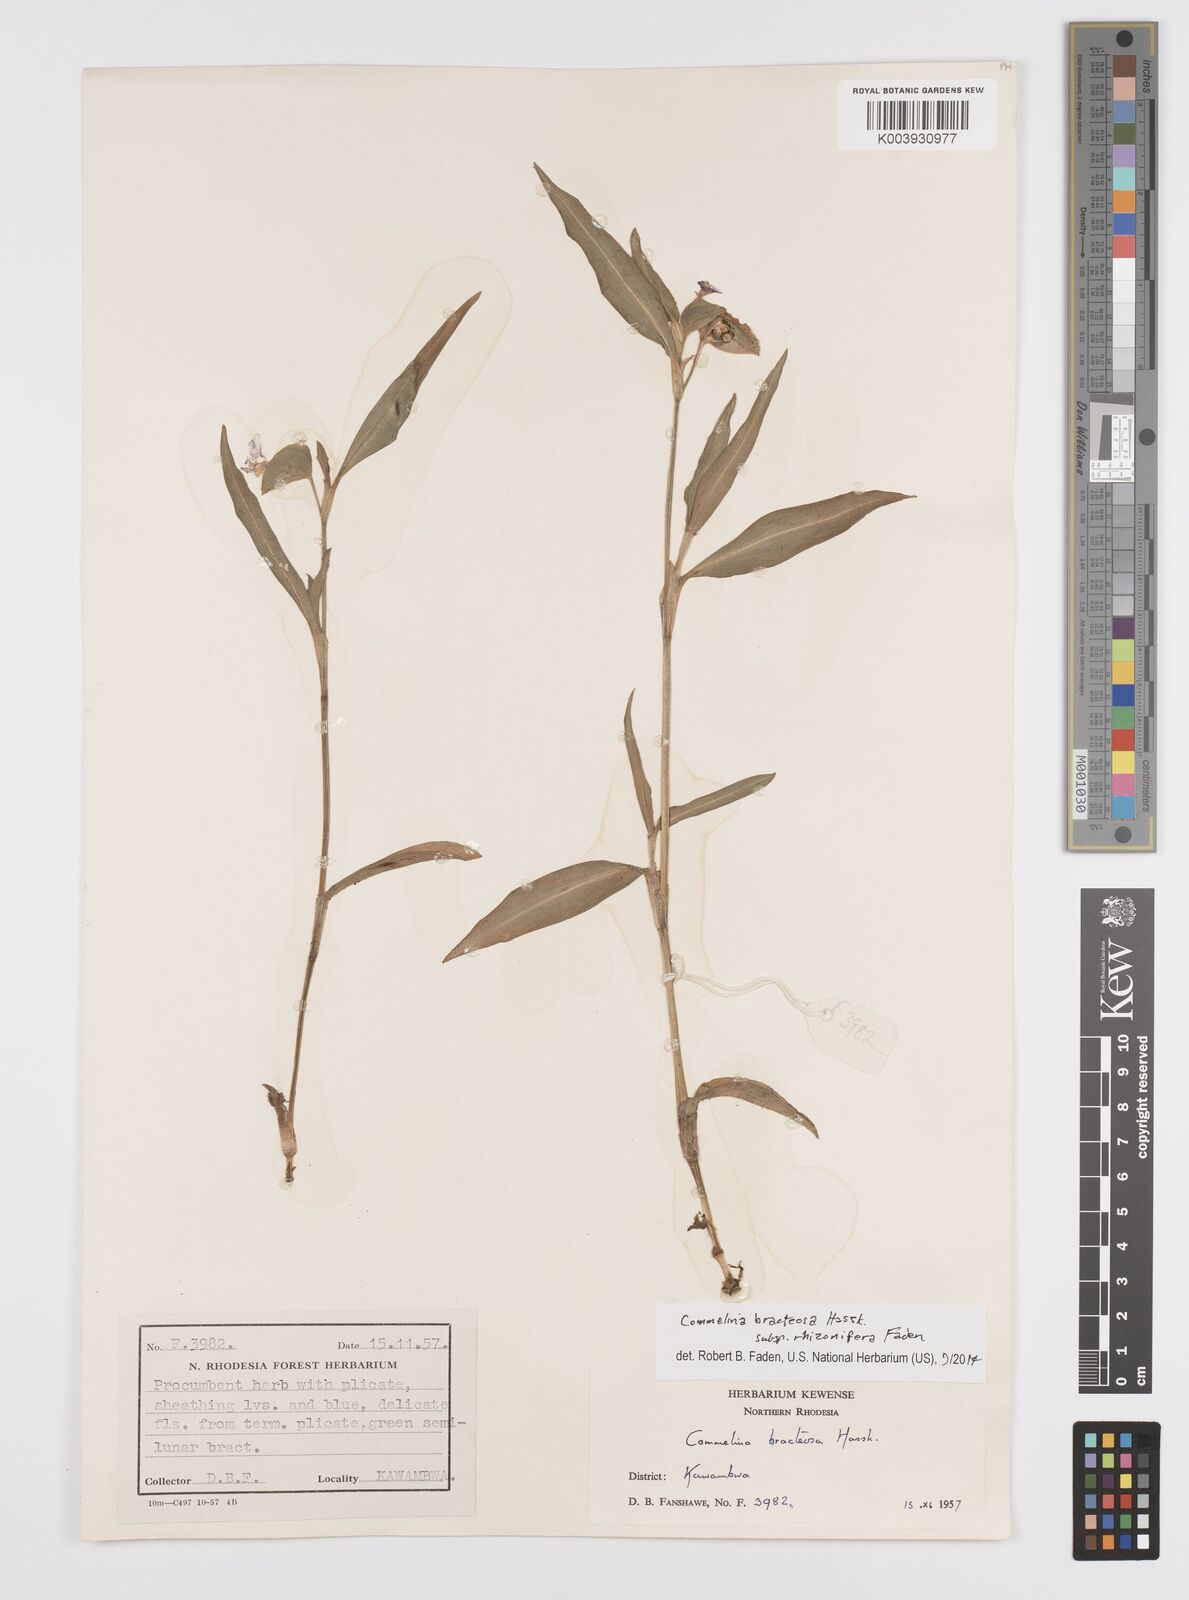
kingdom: Plantae
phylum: Tracheophyta
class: Liliopsida
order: Commelinales
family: Commelinaceae
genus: Commelina
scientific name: Commelina bracteosa
